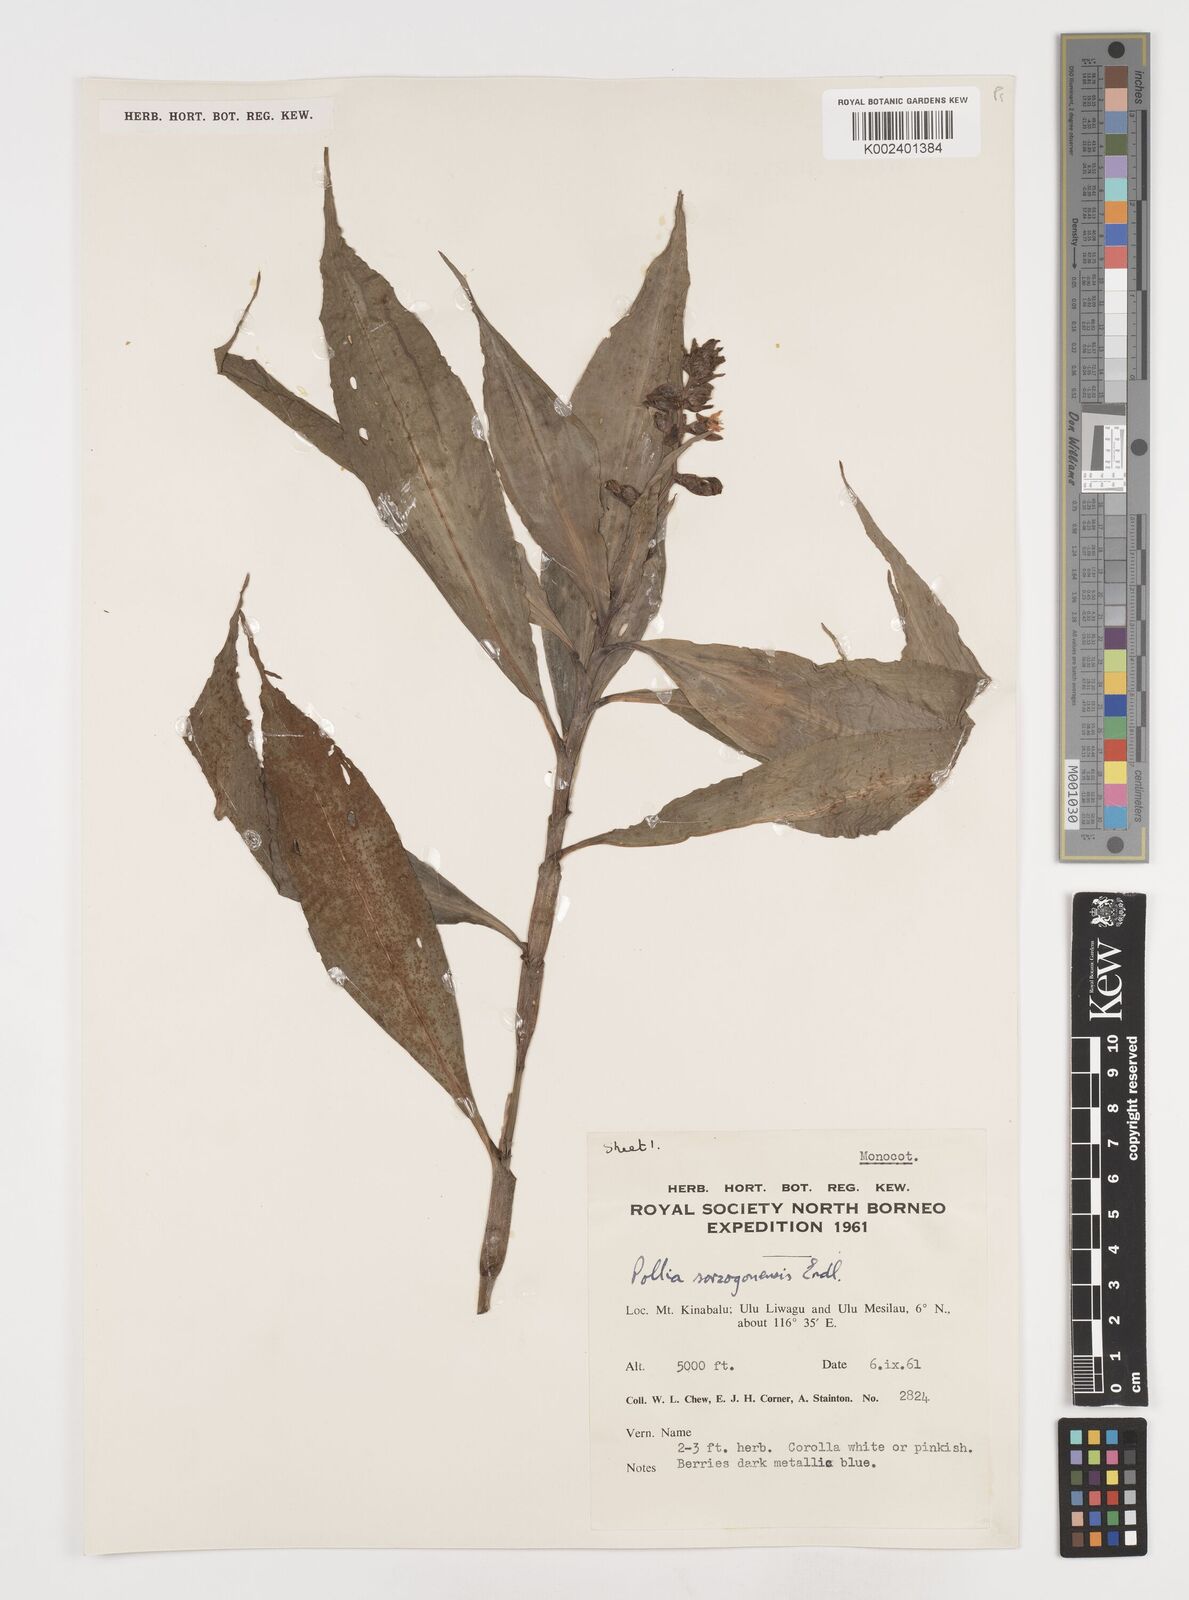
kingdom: Plantae
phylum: Tracheophyta
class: Liliopsida
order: Commelinales
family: Commelinaceae
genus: Pollia
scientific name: Pollia
